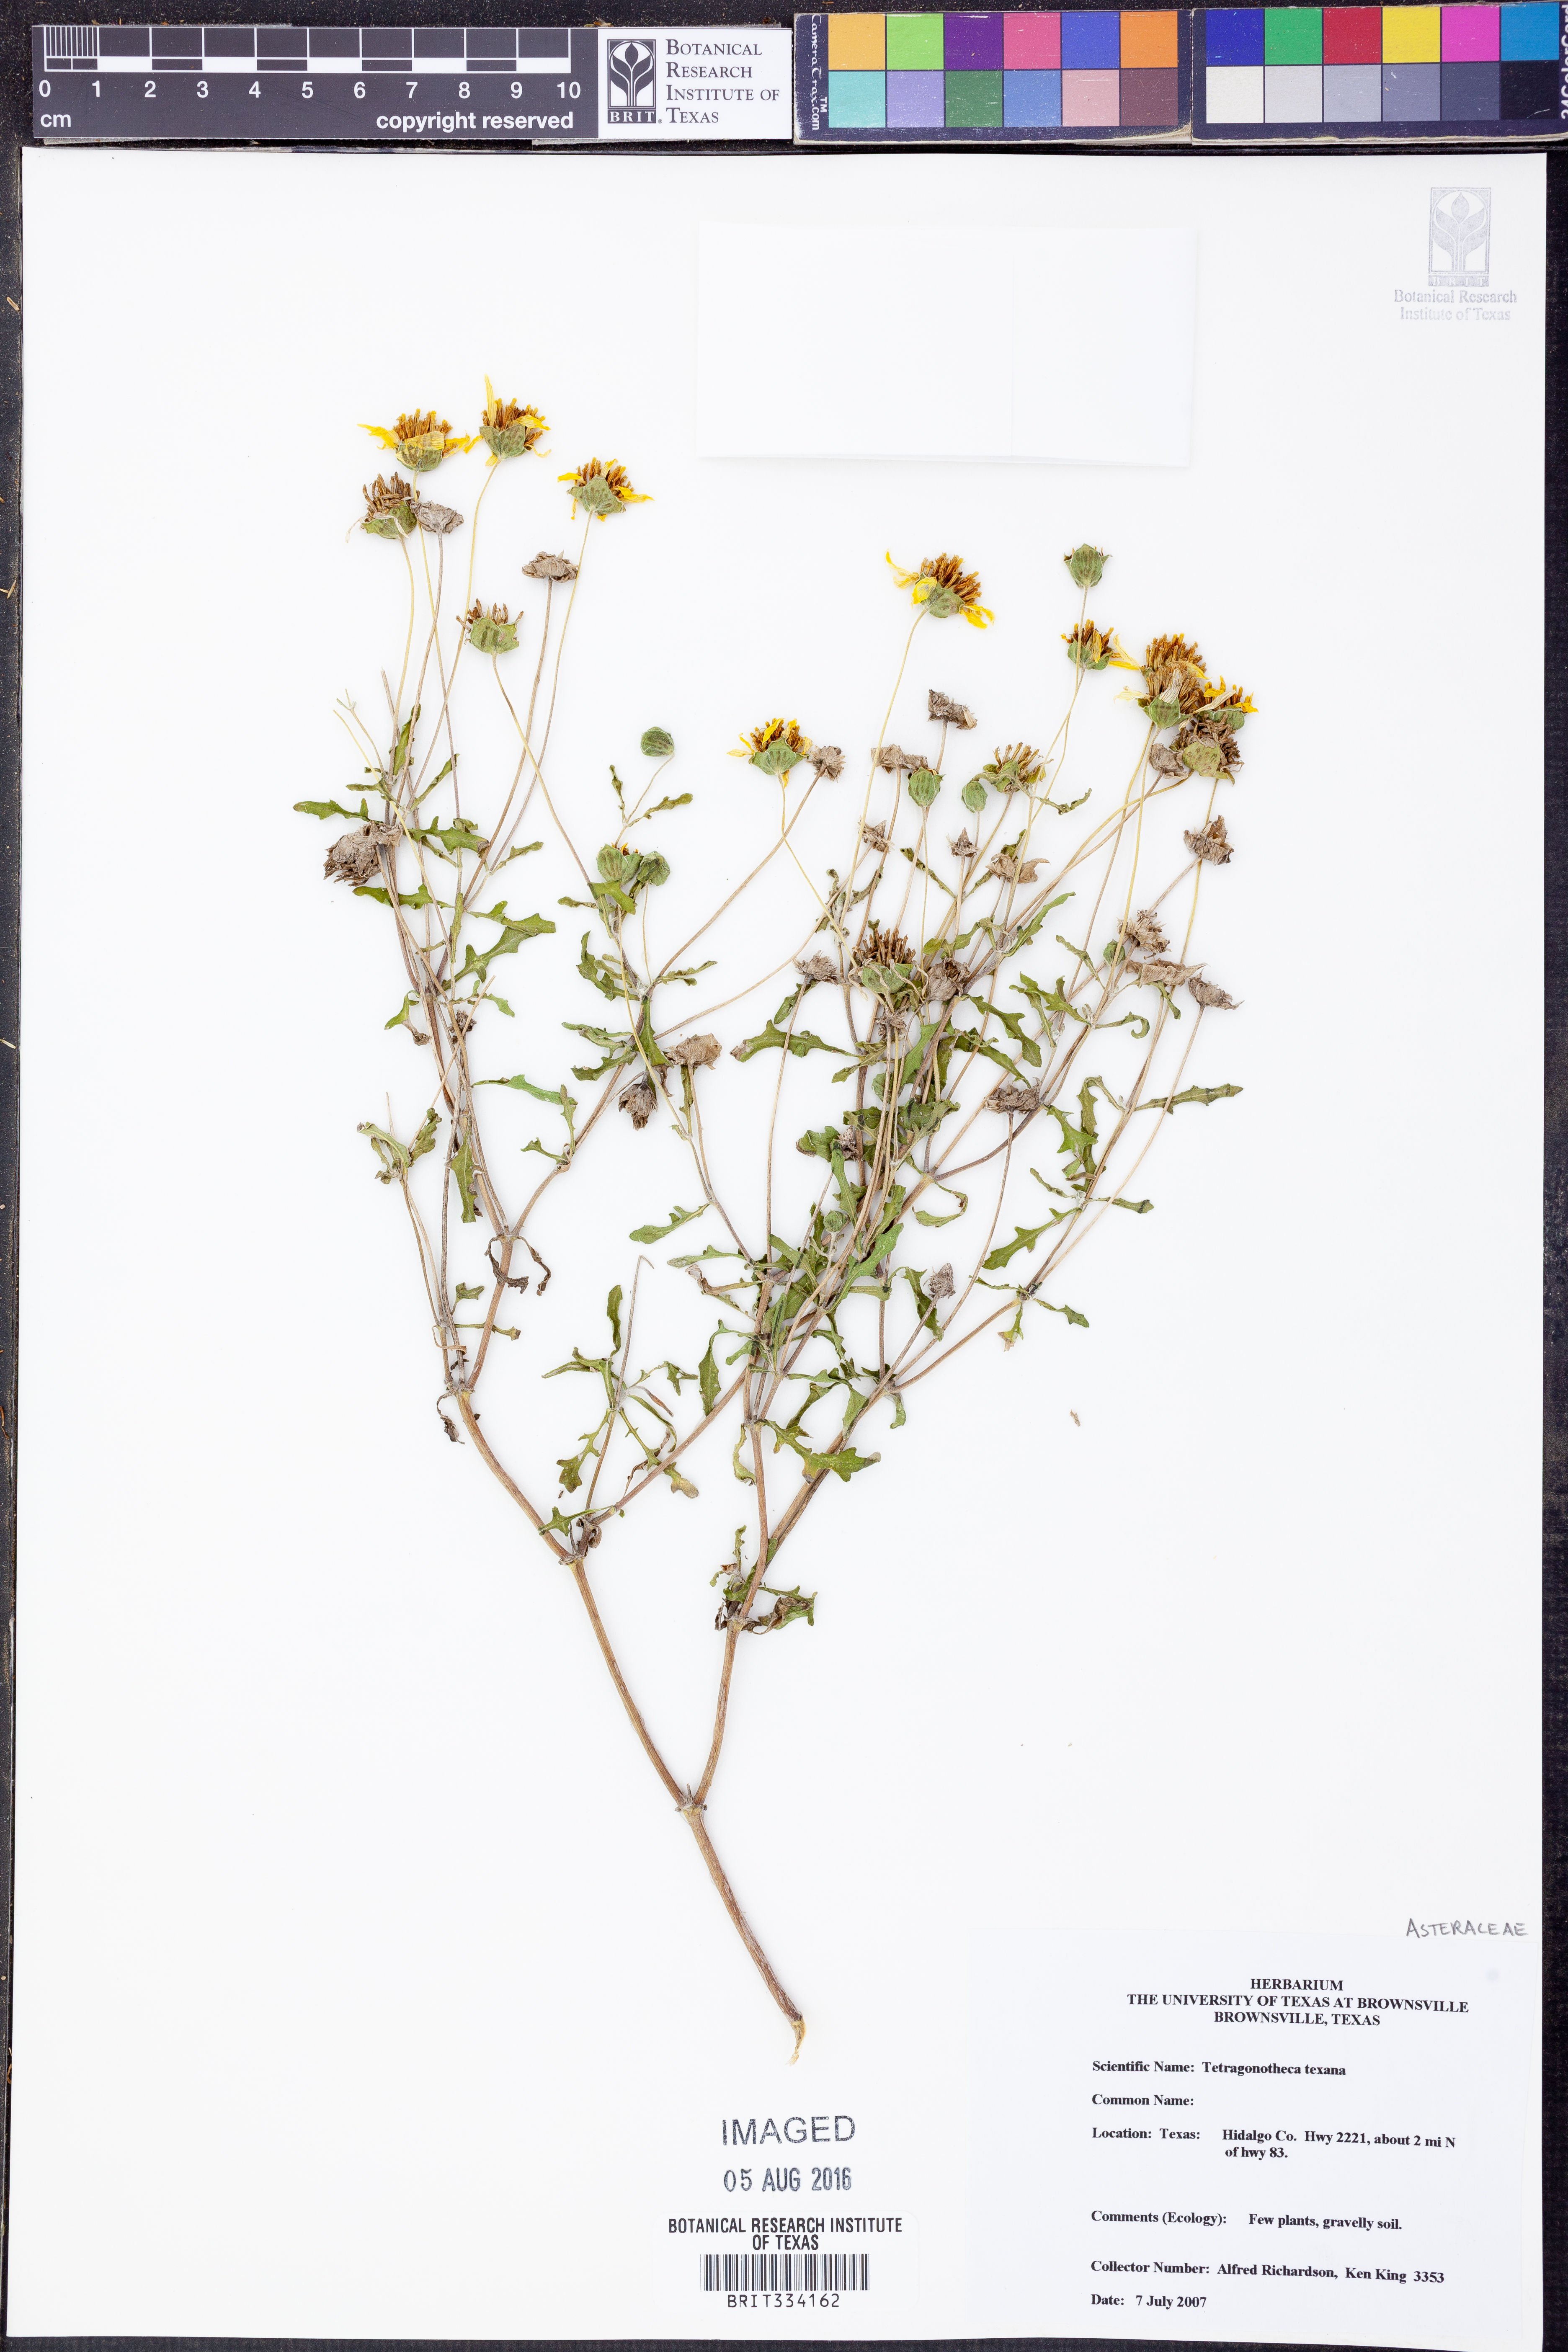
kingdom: Plantae
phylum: Tracheophyta
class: Magnoliopsida
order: Asterales
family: Asteraceae
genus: Tetragonotheca
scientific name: Tetragonotheca texana
